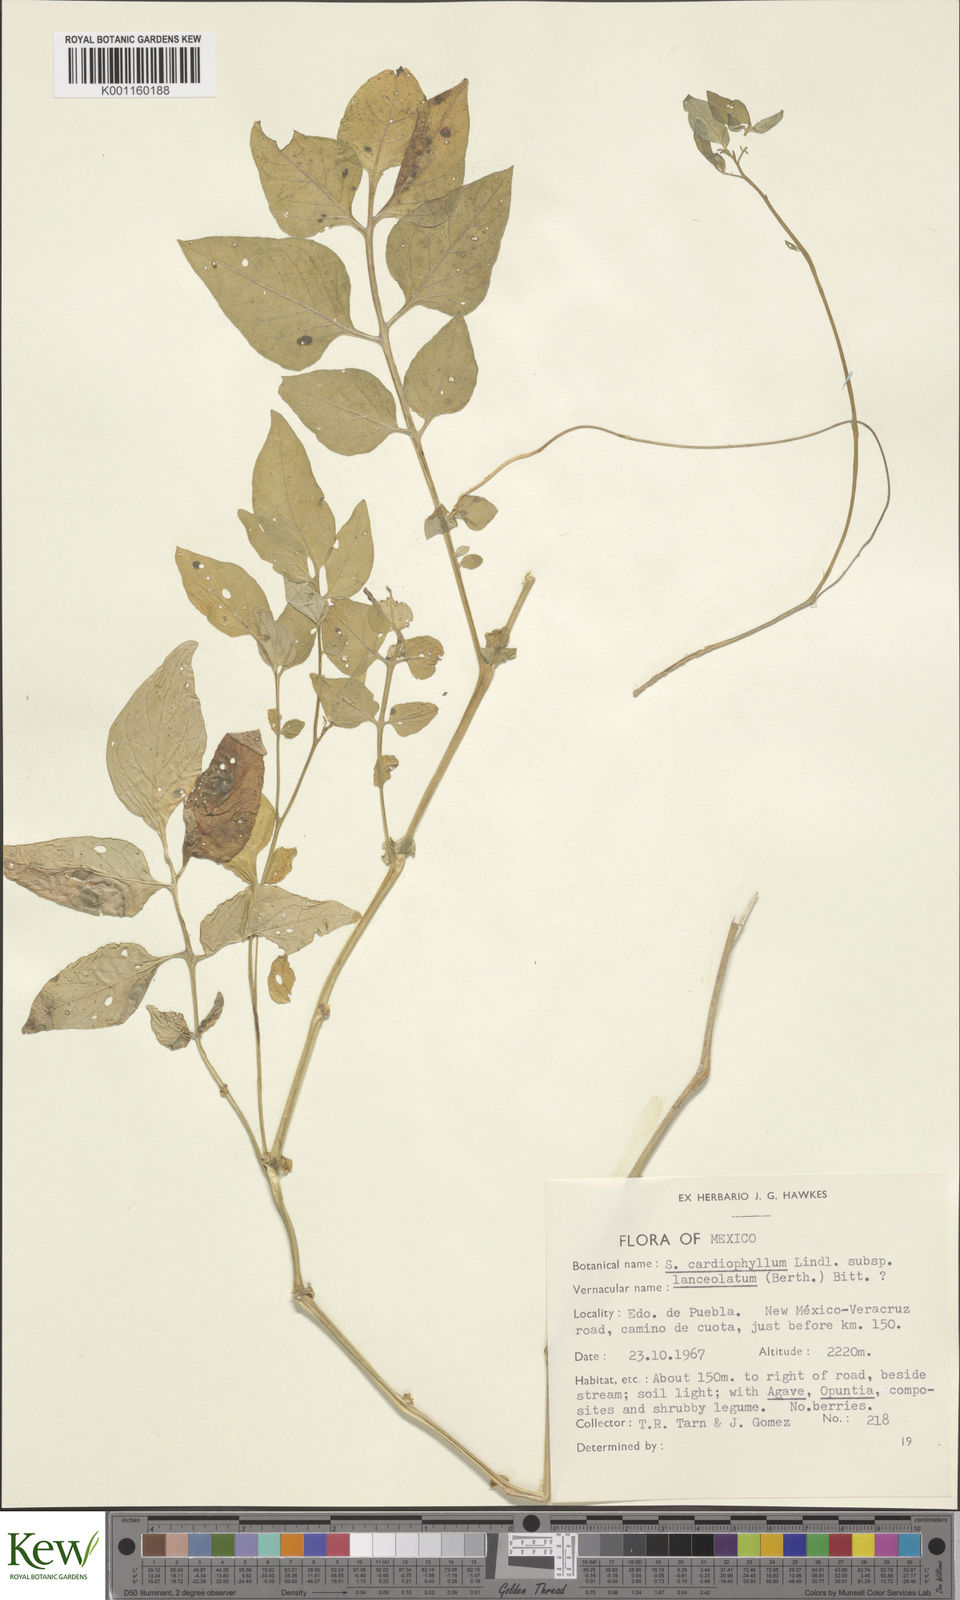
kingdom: Plantae
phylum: Tracheophyta
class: Magnoliopsida
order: Solanales
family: Solanaceae
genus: Solanum
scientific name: Solanum cardiophyllum
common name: Heartleaf horsenettle
